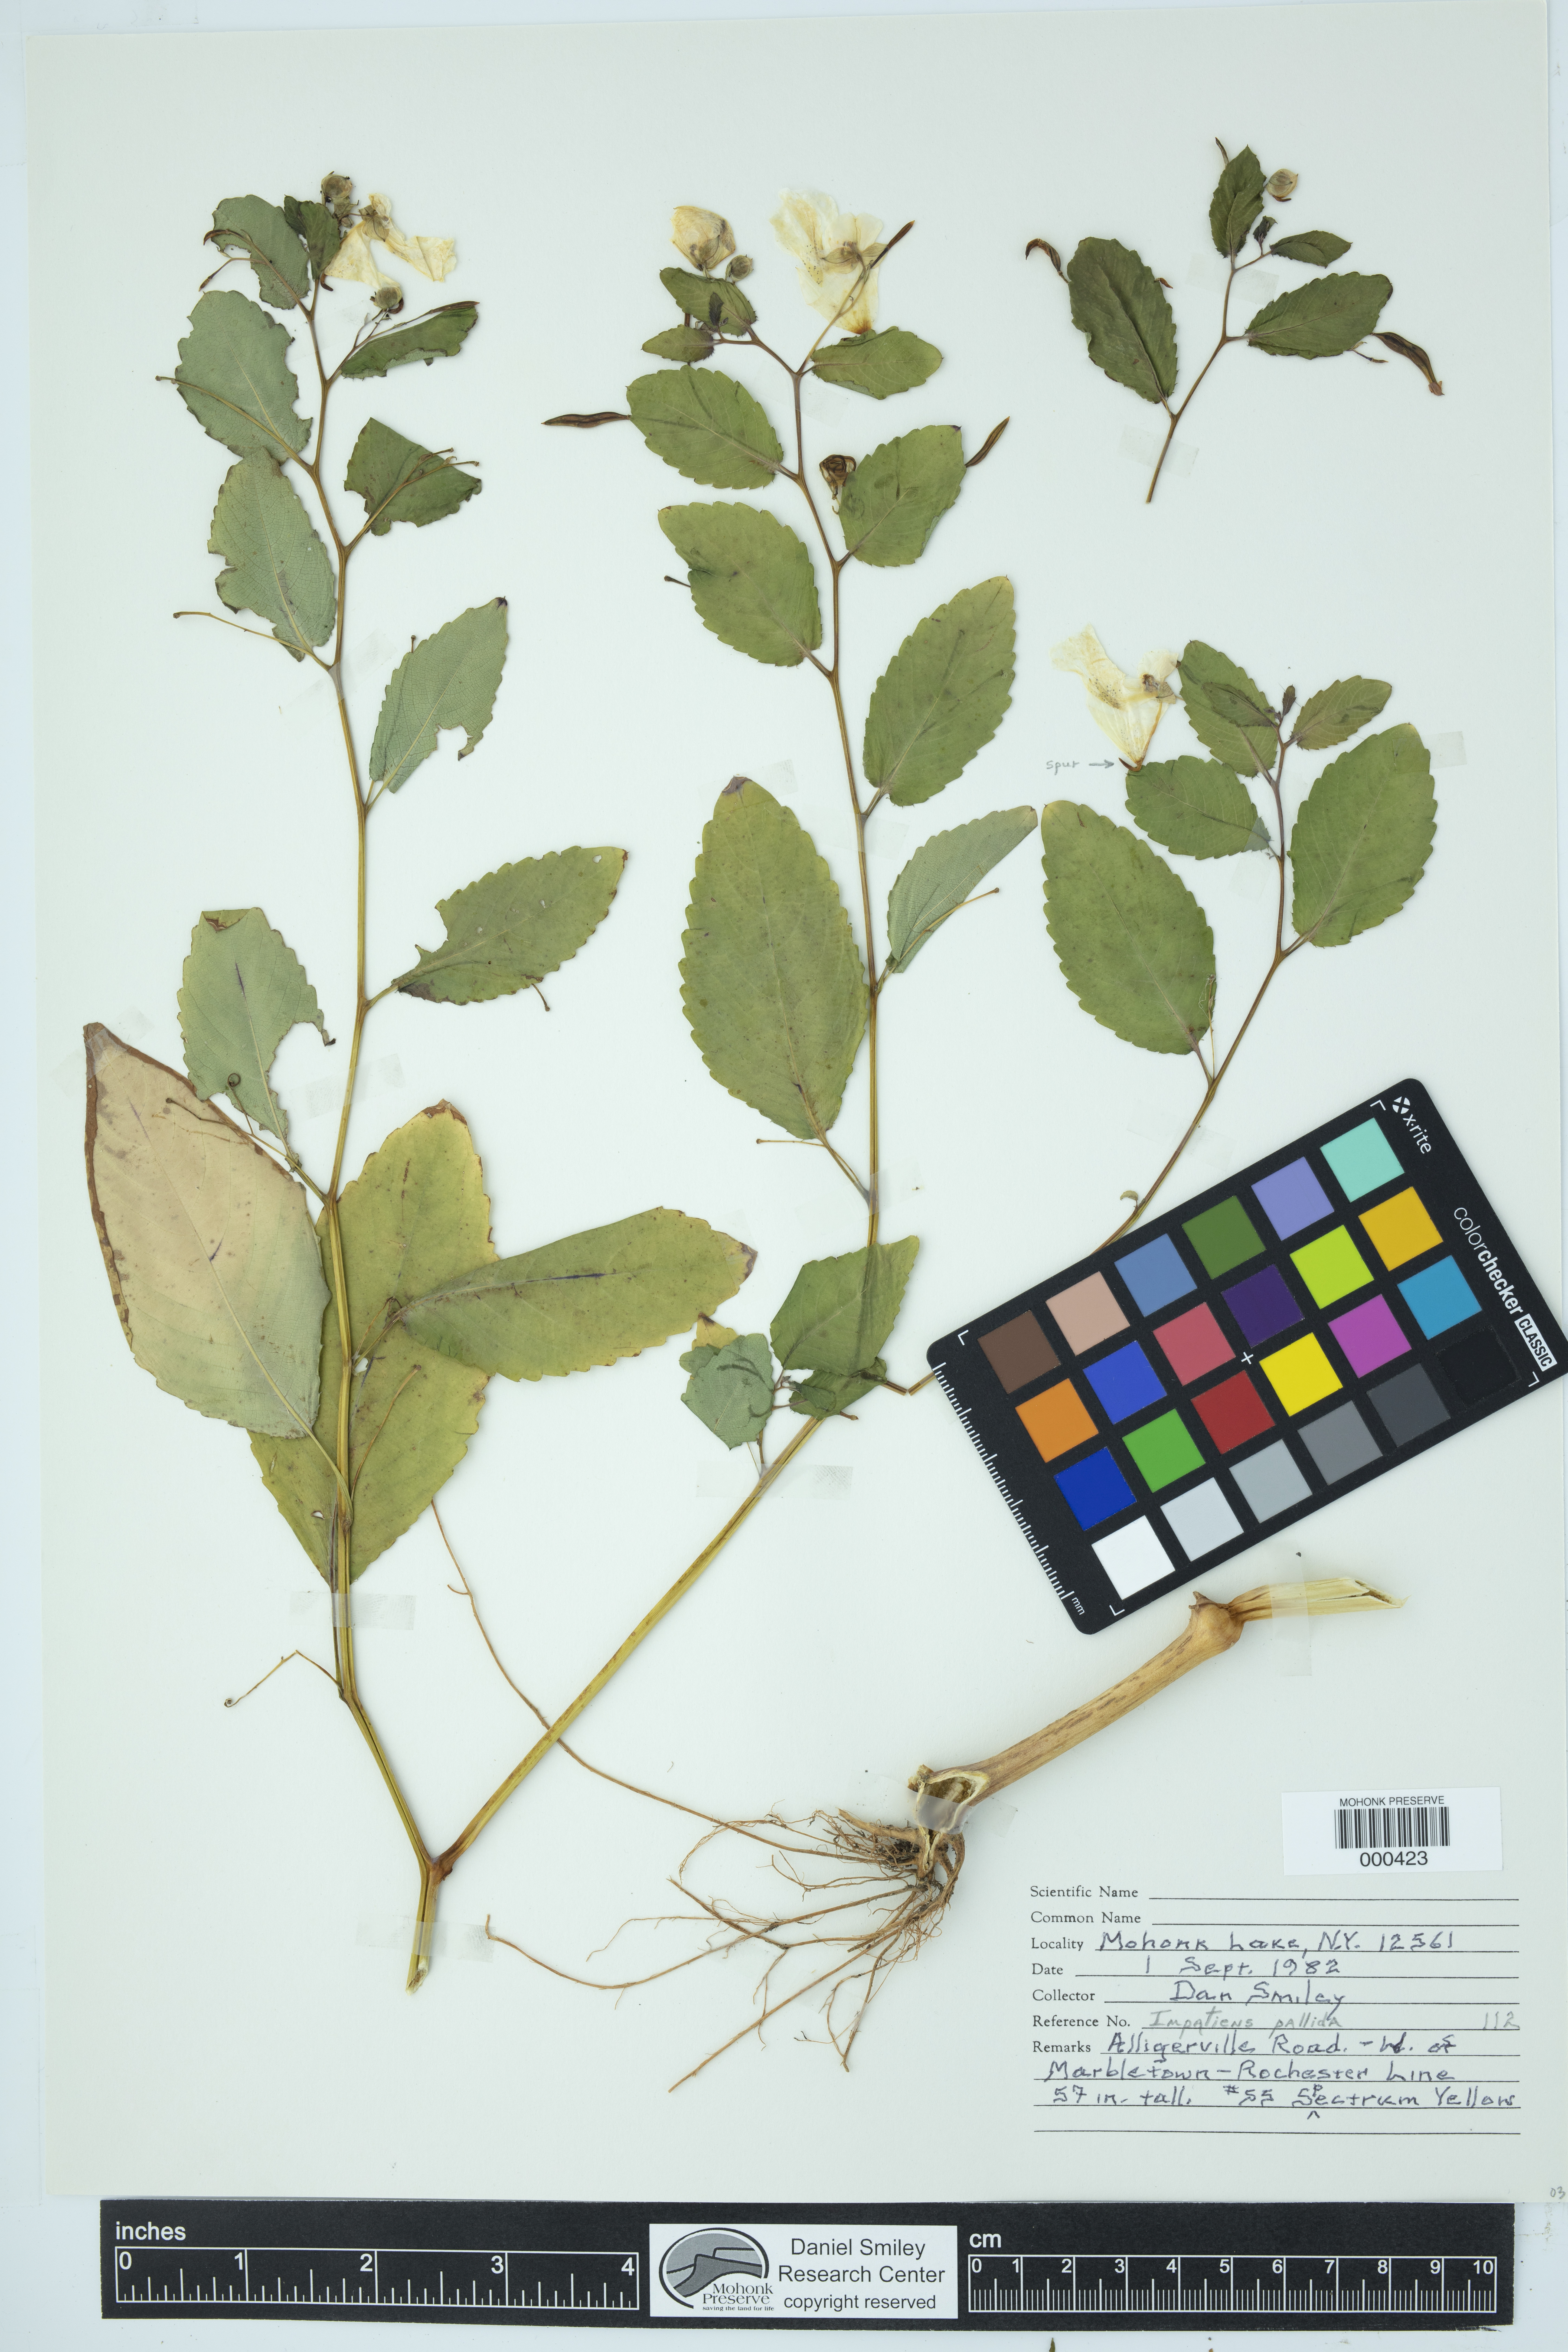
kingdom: Plantae
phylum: Tracheophyta
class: Magnoliopsida
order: Ericales
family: Balsaminaceae
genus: Impatiens
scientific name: Impatiens pallida
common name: Pale snapweed
